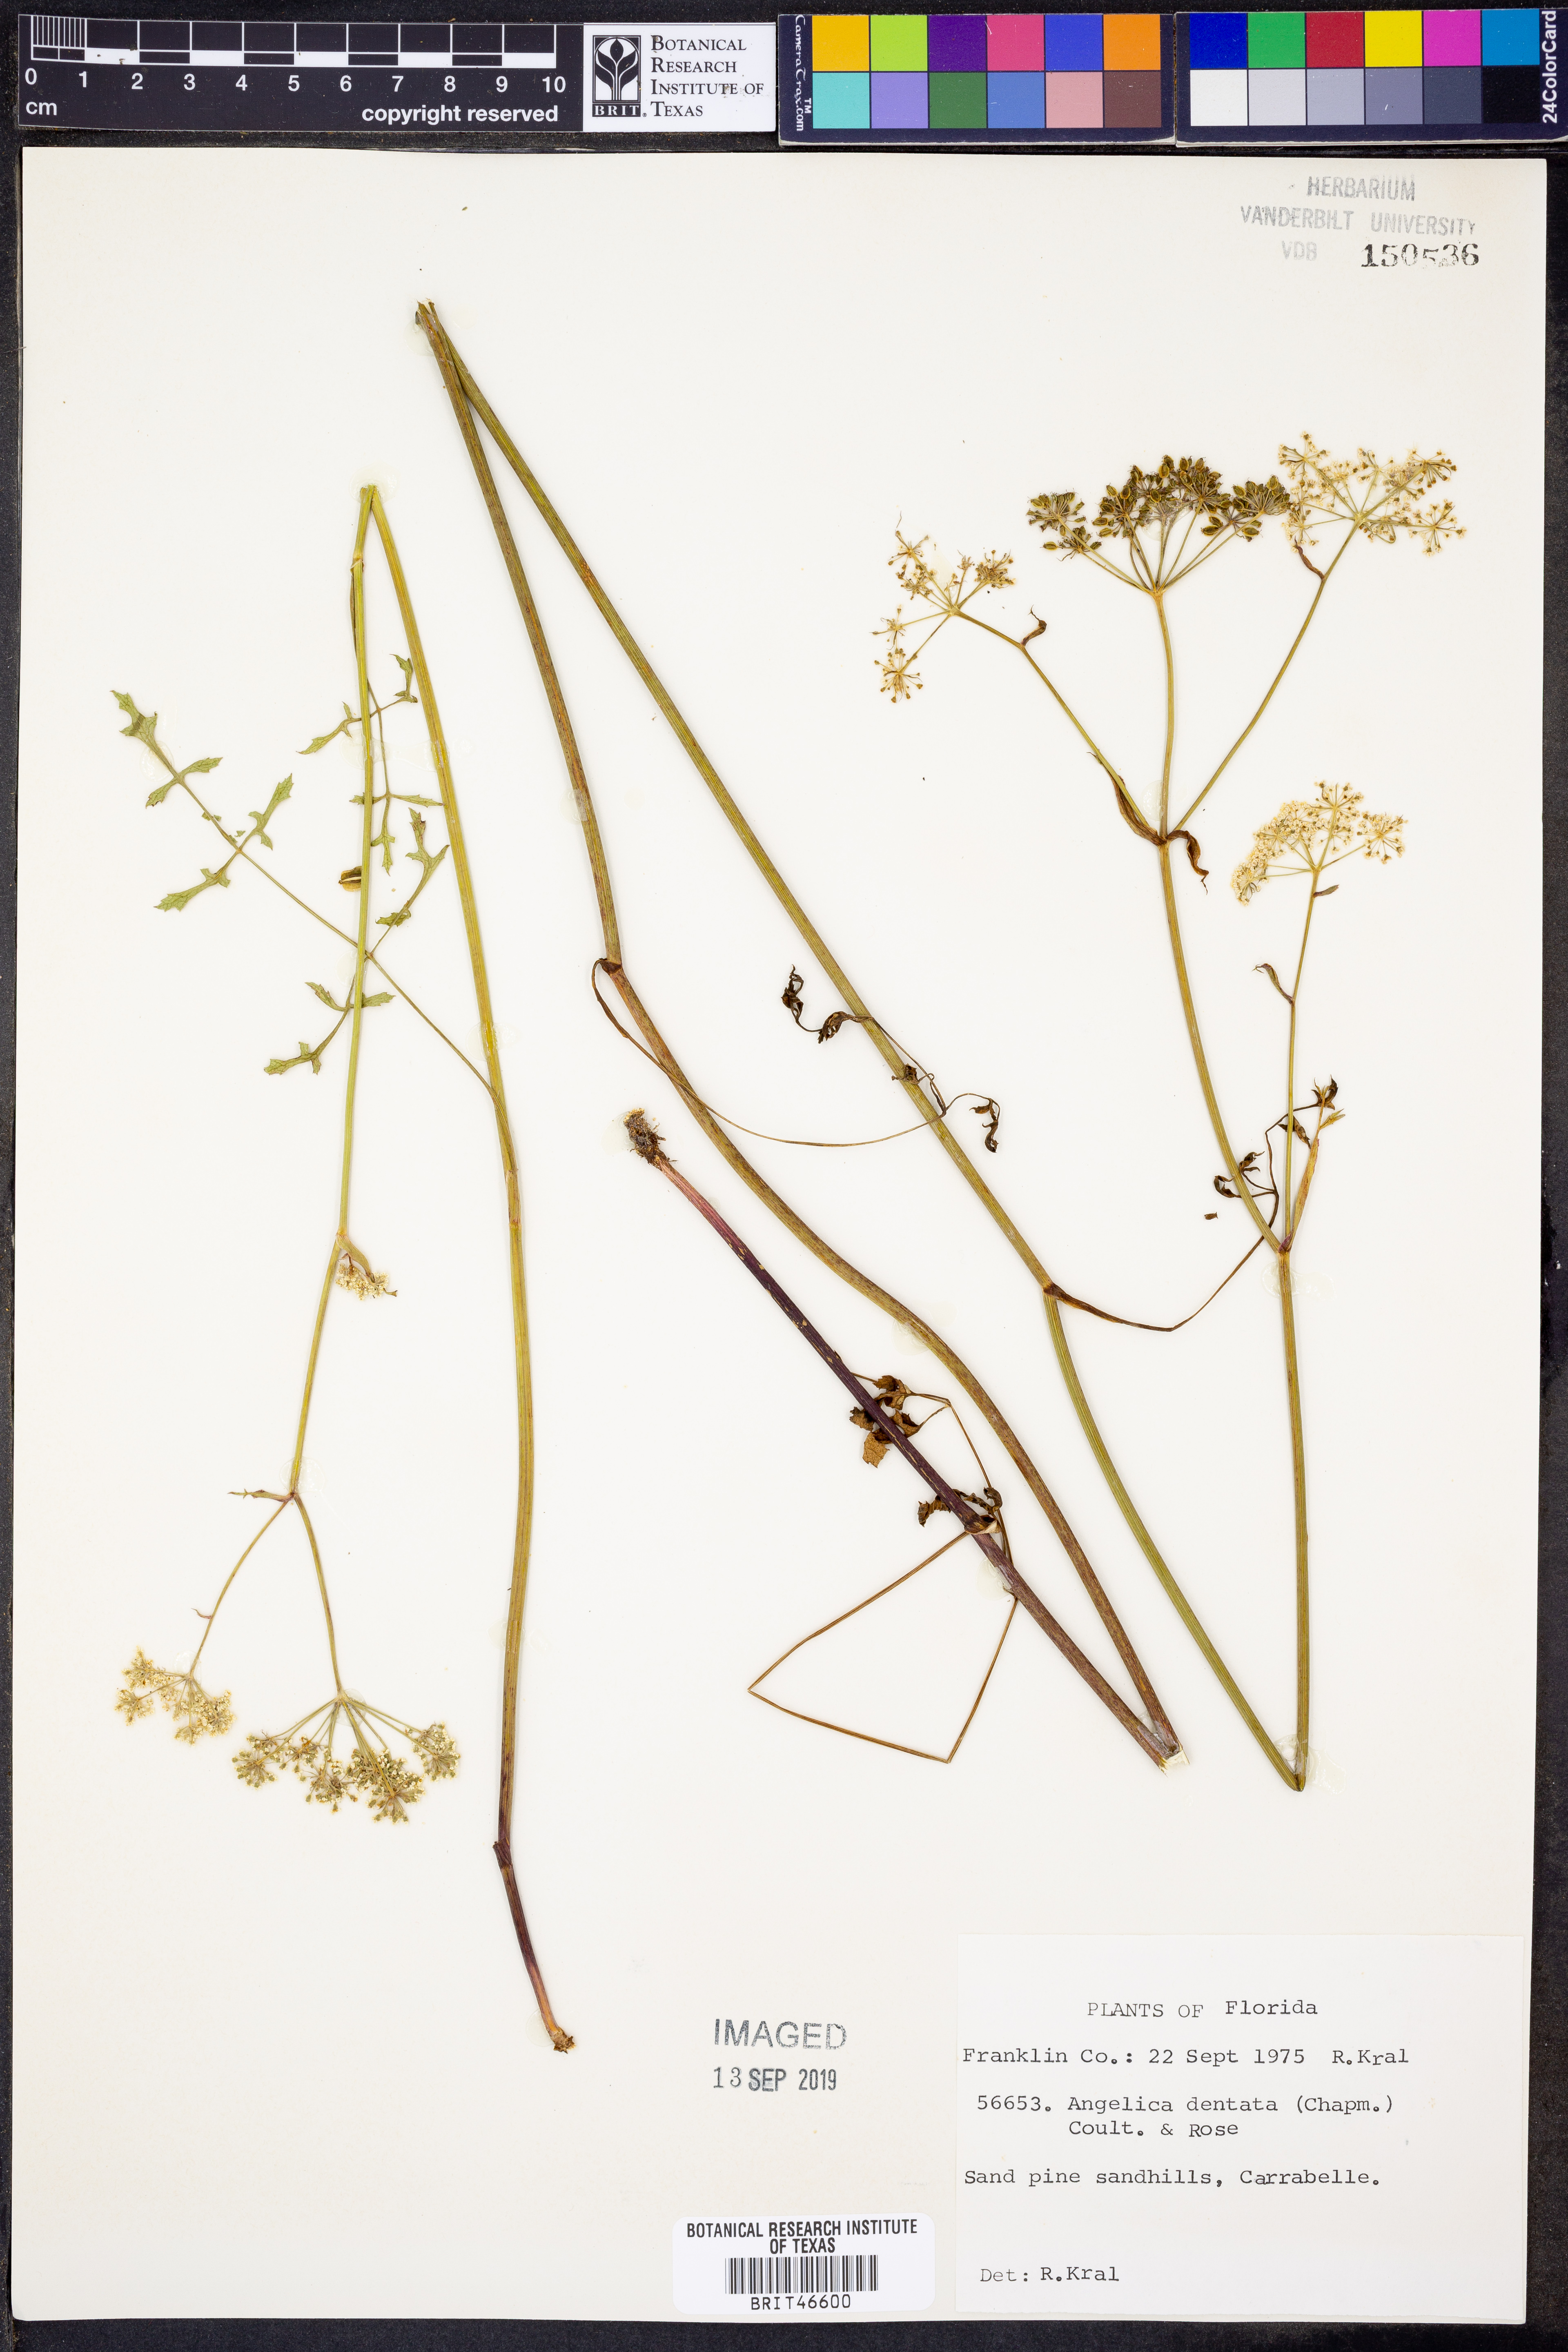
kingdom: Plantae
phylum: Tracheophyta
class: Magnoliopsida
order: Apiales
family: Apiaceae
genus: Angelica
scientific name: Angelica venenosa
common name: Hairy angelica
